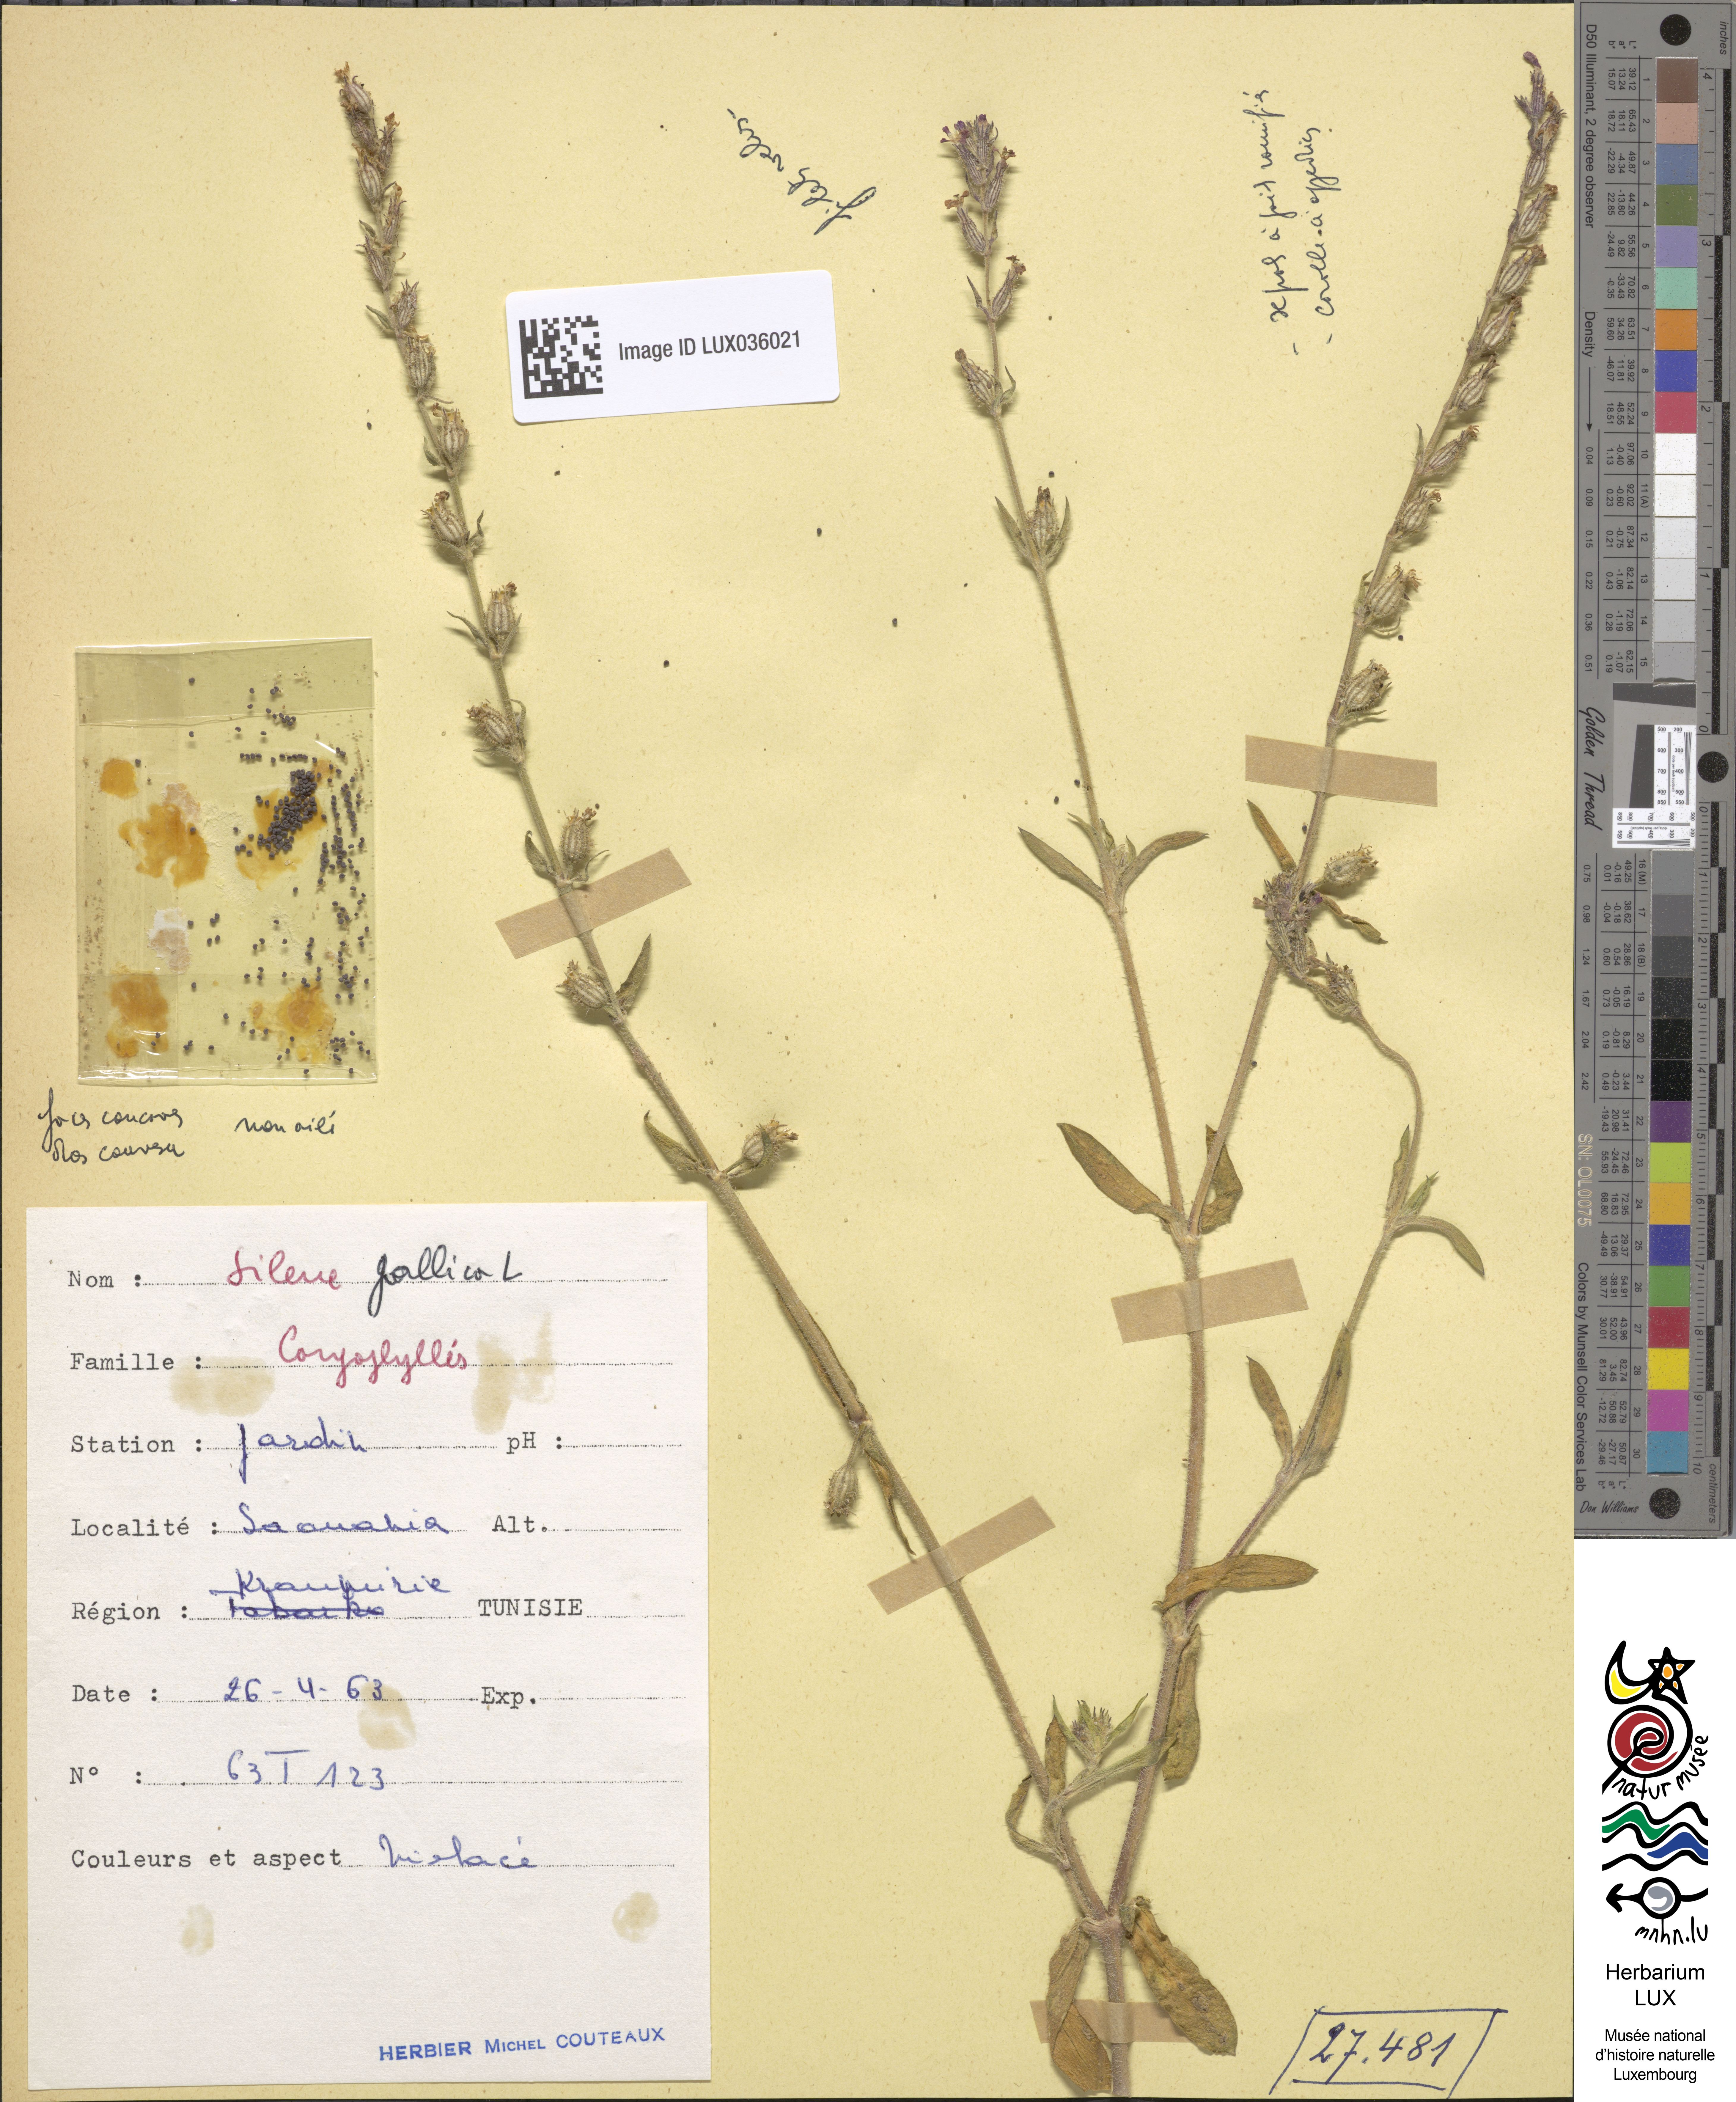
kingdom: Plantae
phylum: Tracheophyta
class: Magnoliopsida
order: Caryophyllales
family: Caryophyllaceae
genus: Silene
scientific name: Silene gallica
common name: Small-flowered catchfly
